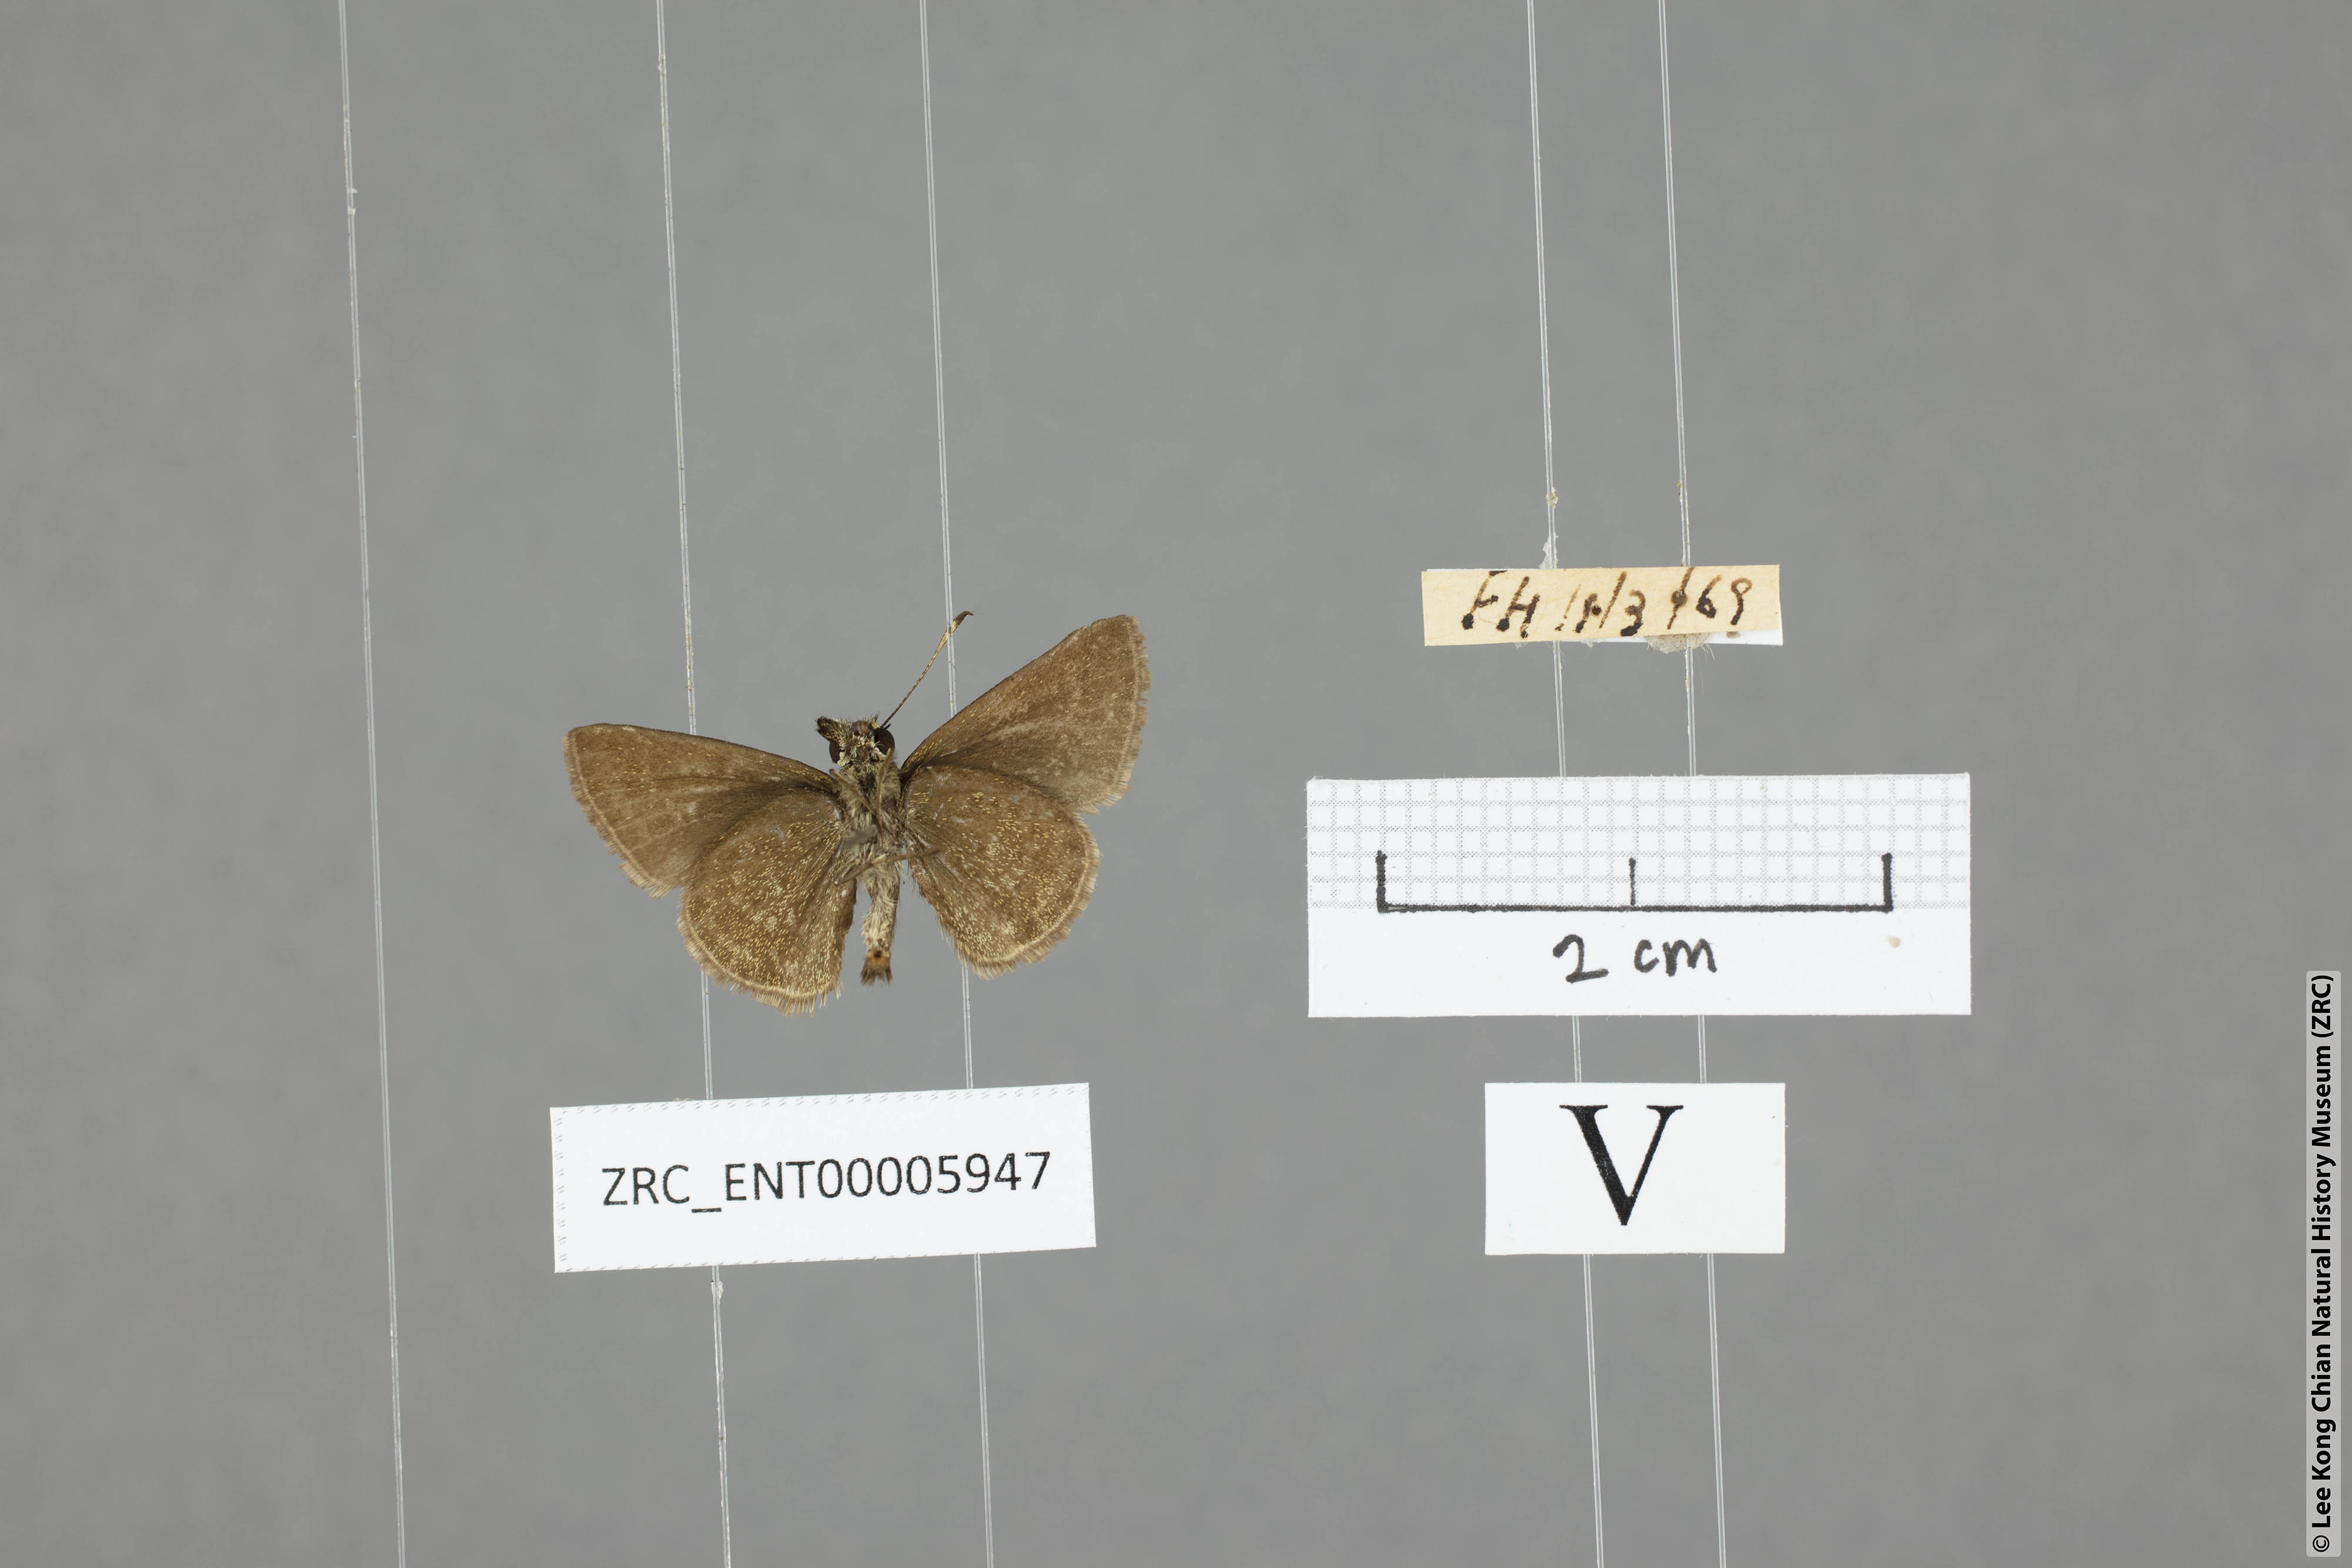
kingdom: Animalia
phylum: Arthropoda
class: Insecta
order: Lepidoptera
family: Hesperiidae
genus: Aeromachus
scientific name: Aeromachus jhora
